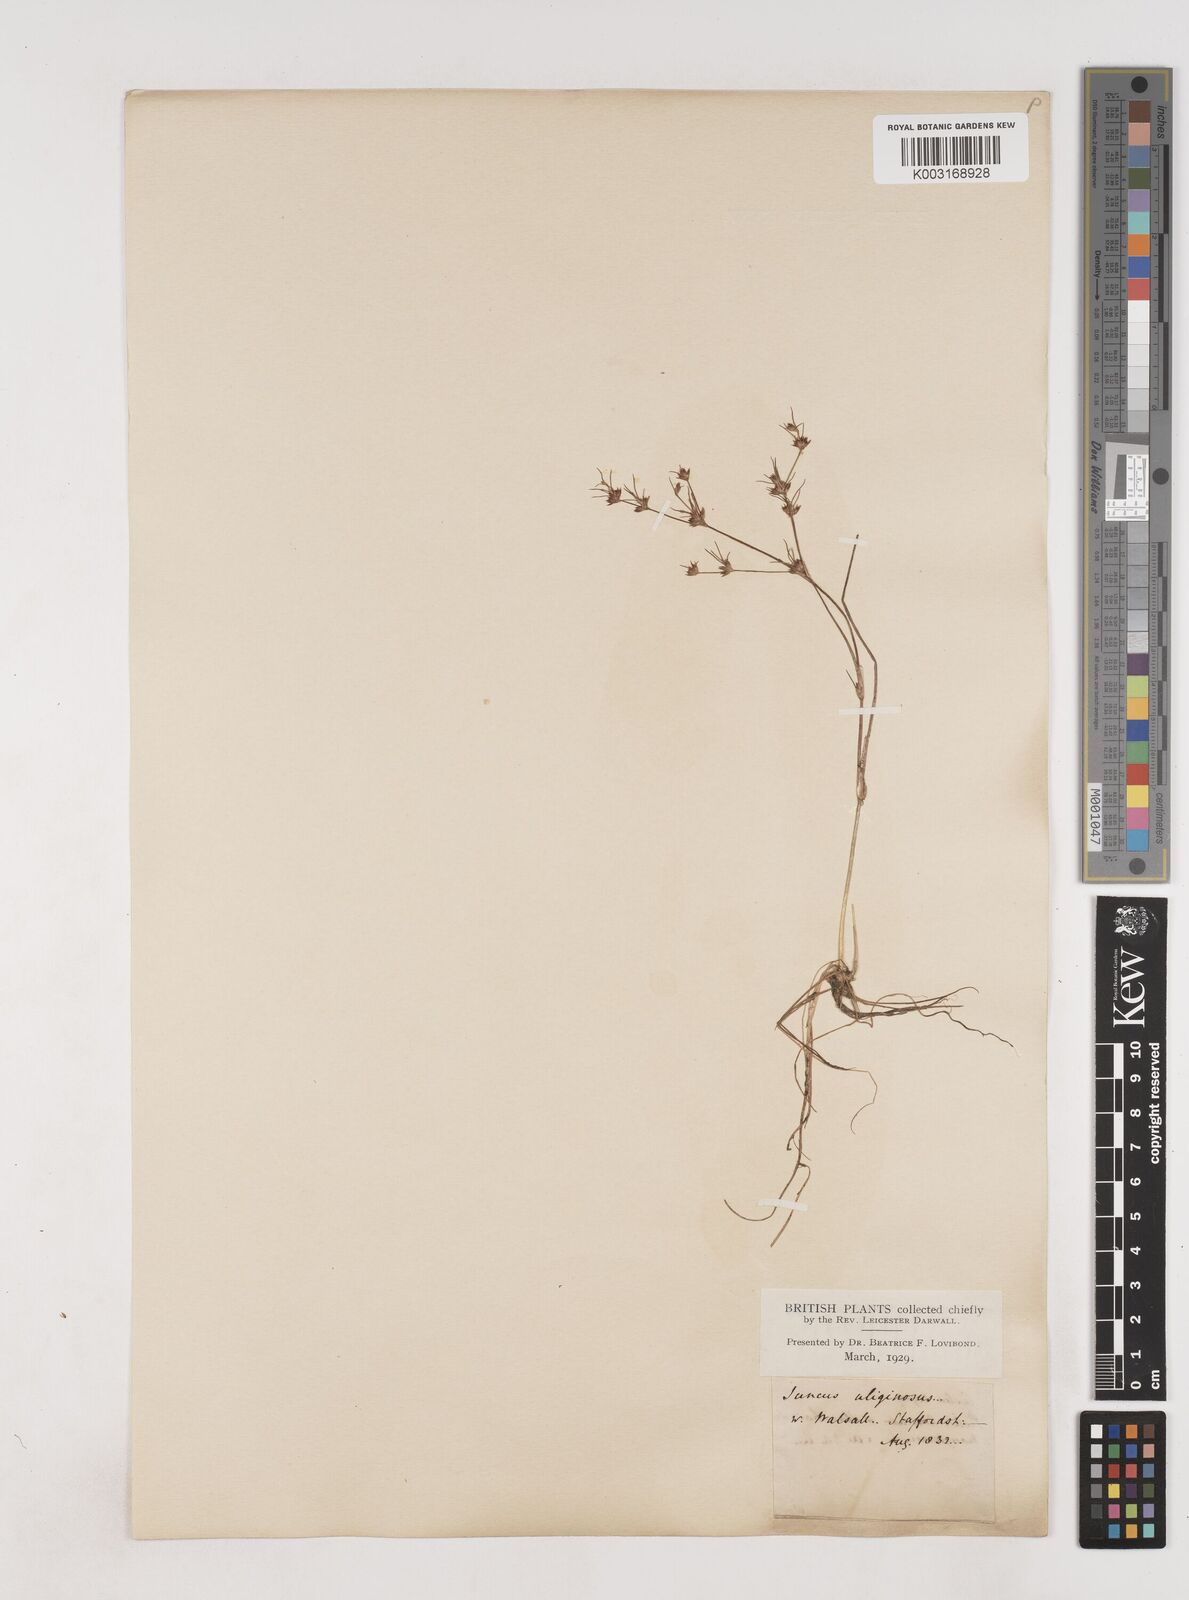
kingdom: Plantae
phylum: Tracheophyta
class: Liliopsida
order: Poales
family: Juncaceae
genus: Juncus
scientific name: Juncus bulbosus
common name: Bulbous rush
